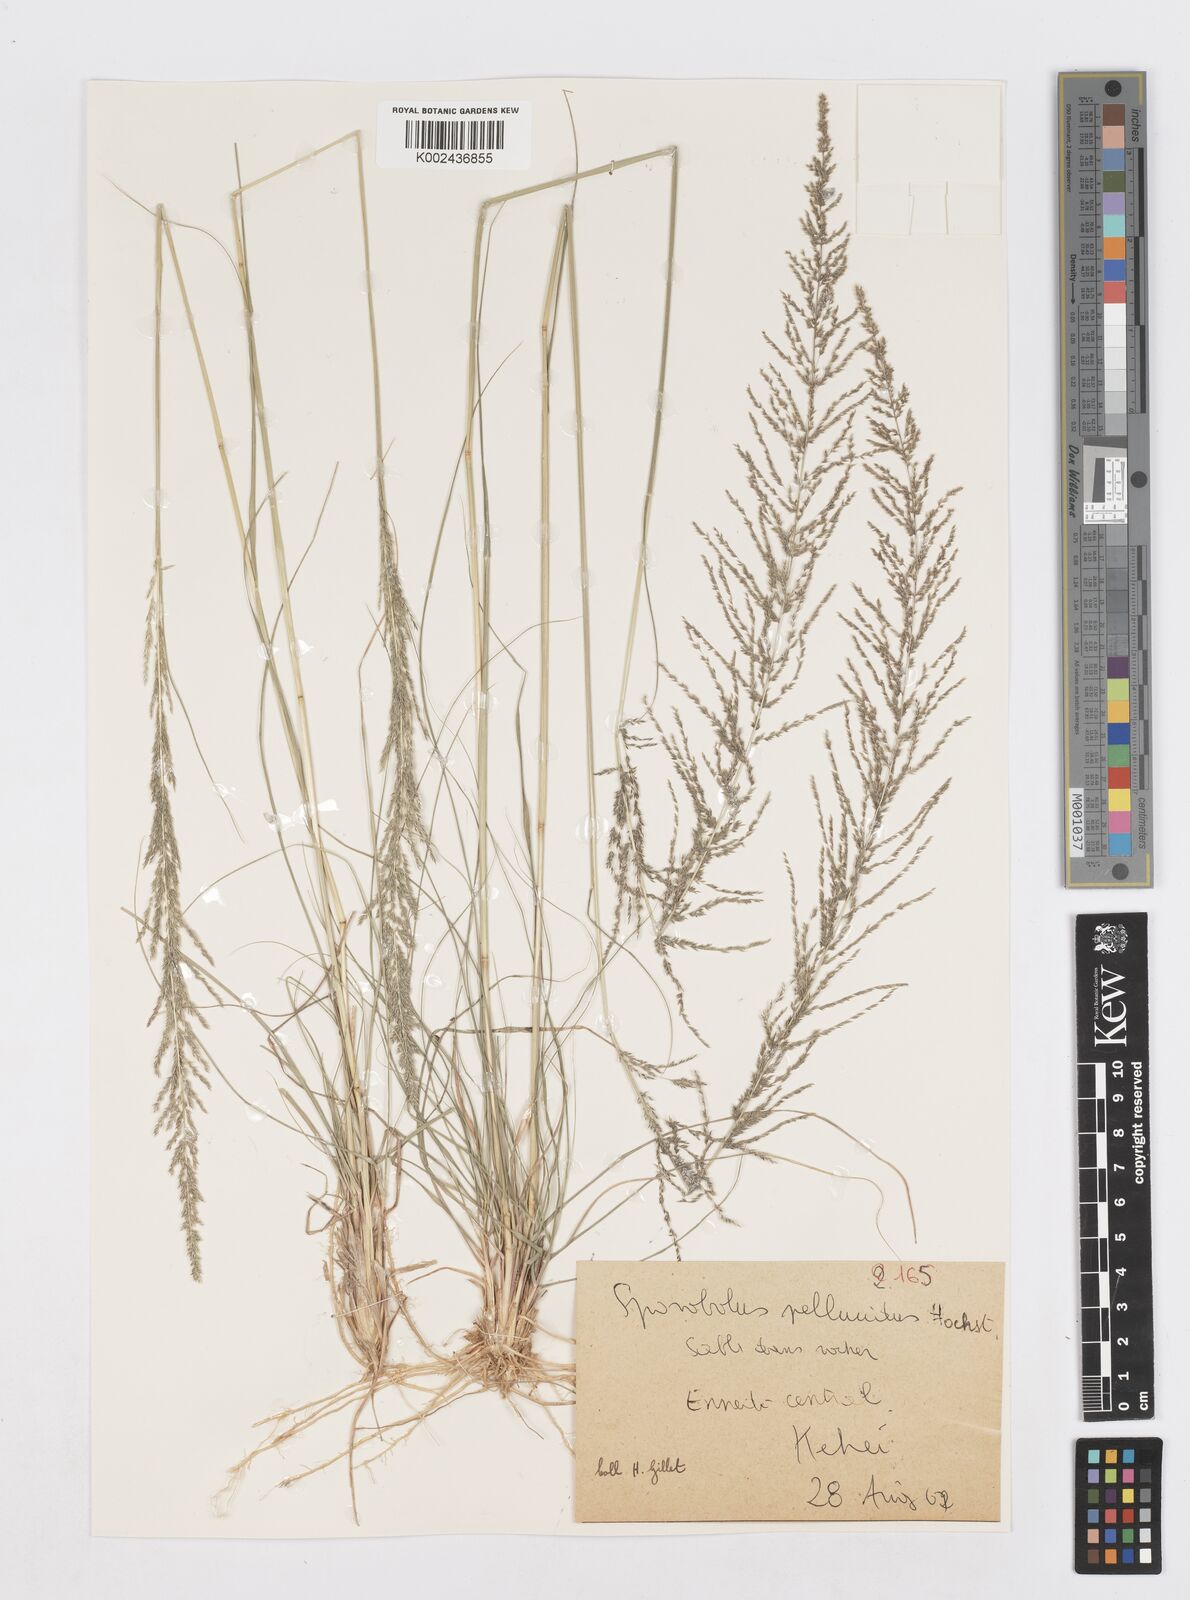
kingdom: Plantae
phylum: Tracheophyta
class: Liliopsida
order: Poales
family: Poaceae
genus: Sporobolus
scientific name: Sporobolus pellucidus
